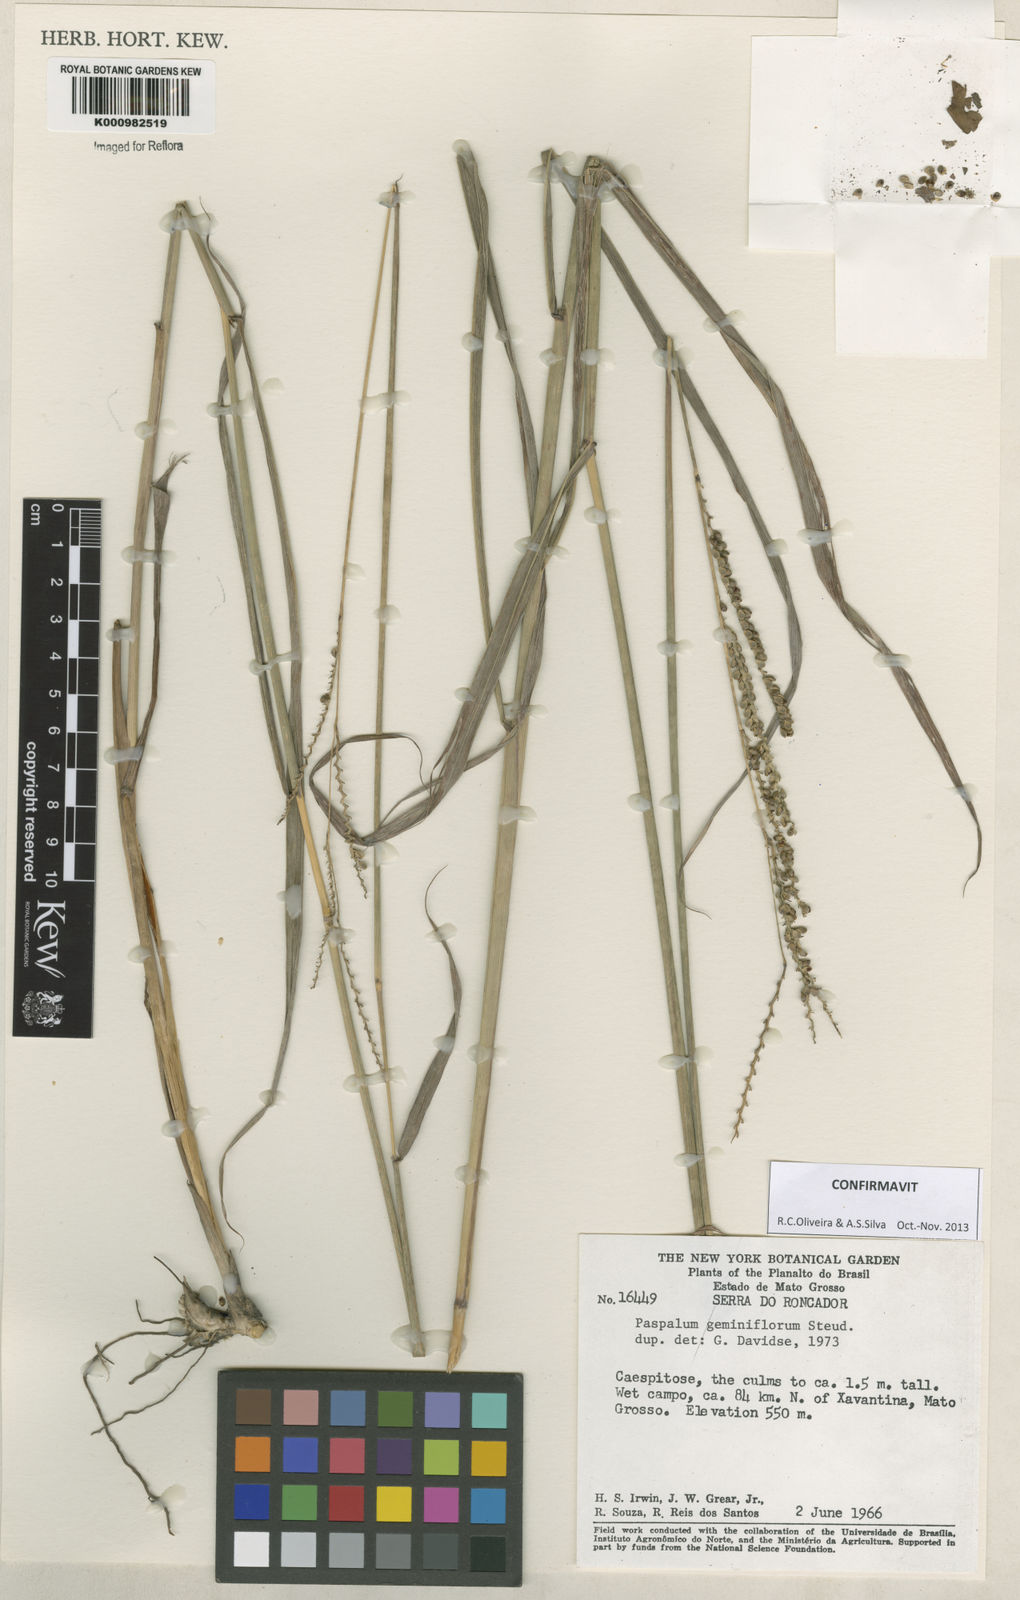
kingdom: Plantae
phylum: Tracheophyta
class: Liliopsida
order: Poales
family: Poaceae
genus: Paspalum
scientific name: Paspalum geminiflorum
